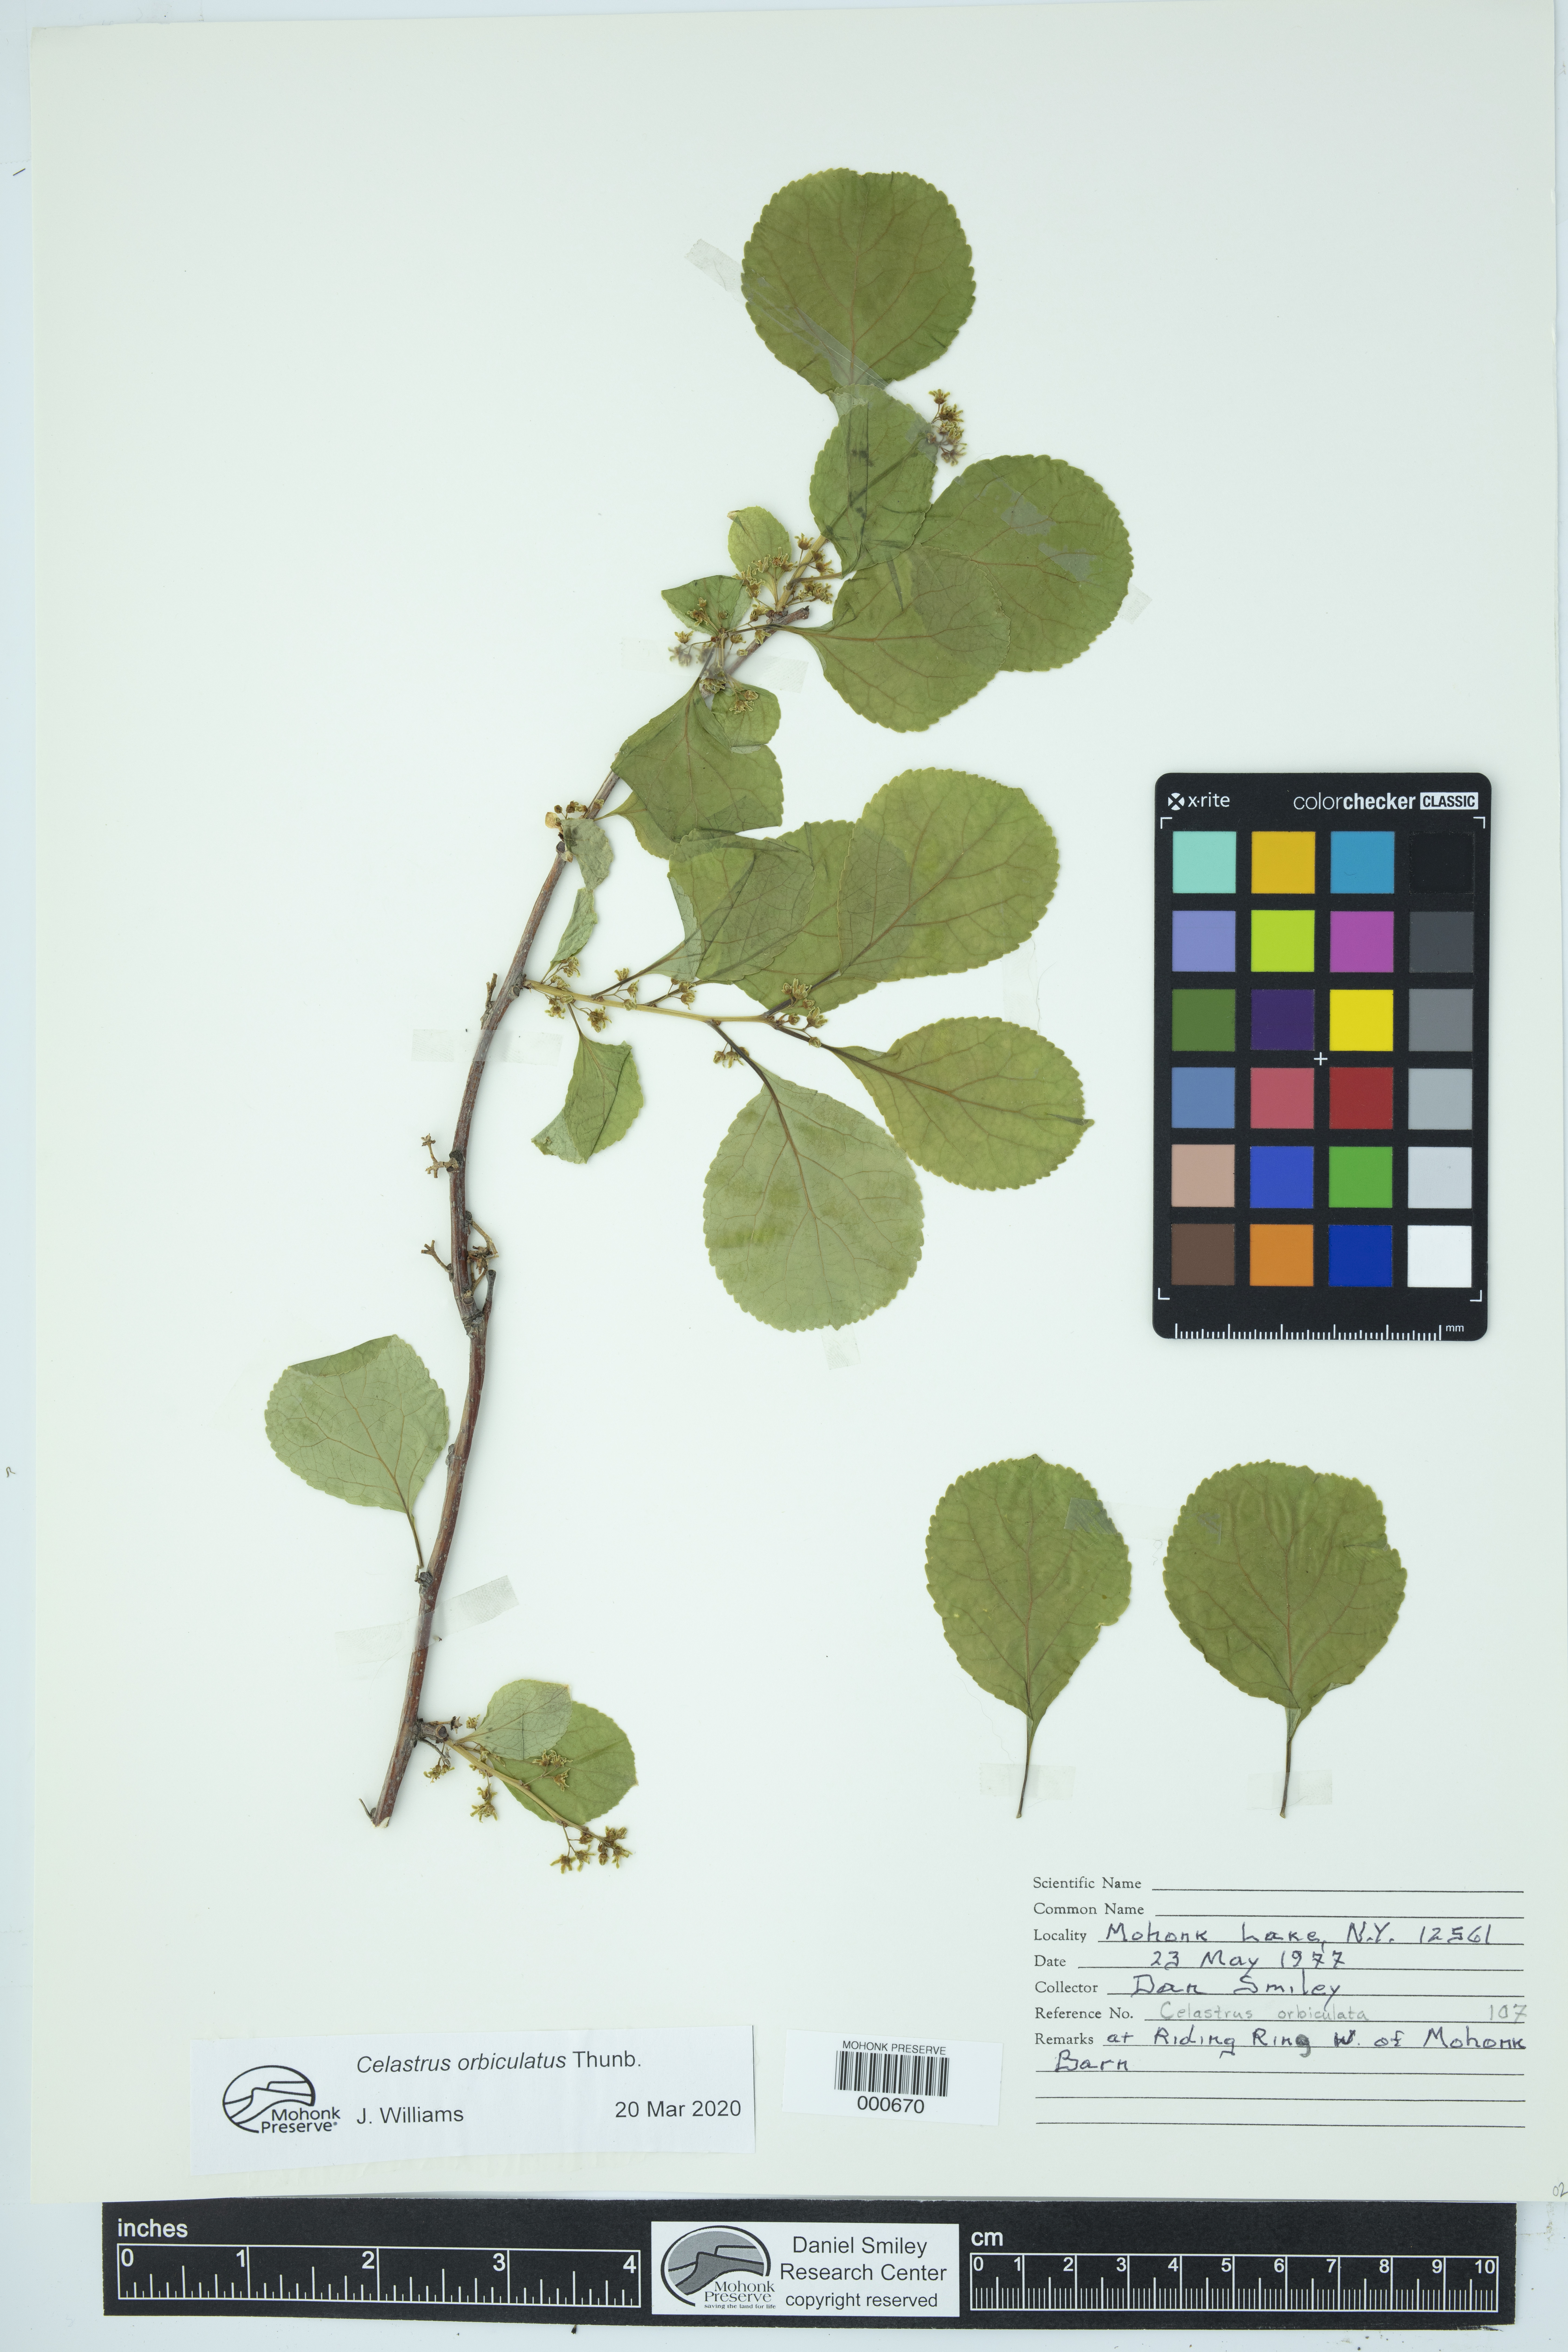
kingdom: Plantae
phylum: Tracheophyta
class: Magnoliopsida
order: Celastrales
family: Celastraceae
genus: Celastrus
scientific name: Celastrus orbiculatus
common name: Oriental bittersweet
